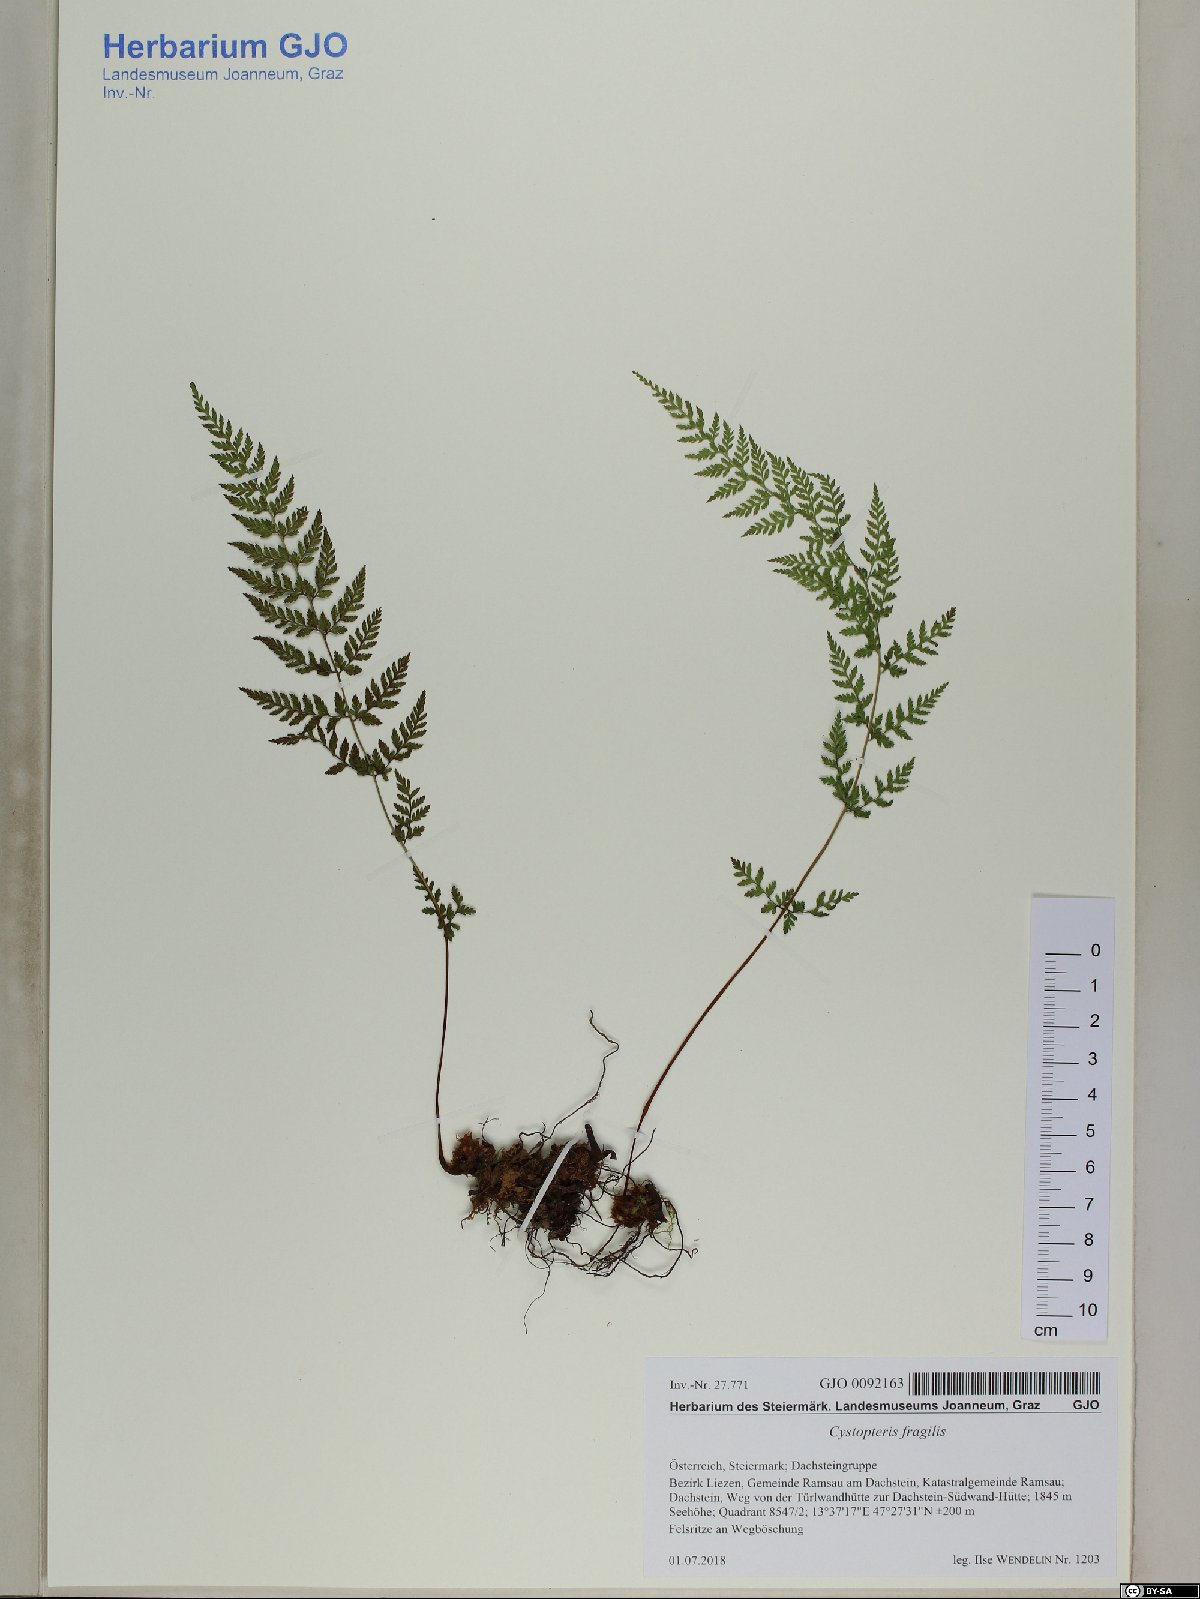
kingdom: Plantae
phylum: Tracheophyta
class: Polypodiopsida
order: Polypodiales
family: Cystopteridaceae
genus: Cystopteris
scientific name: Cystopteris fragilis
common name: Brittle bladder fern
